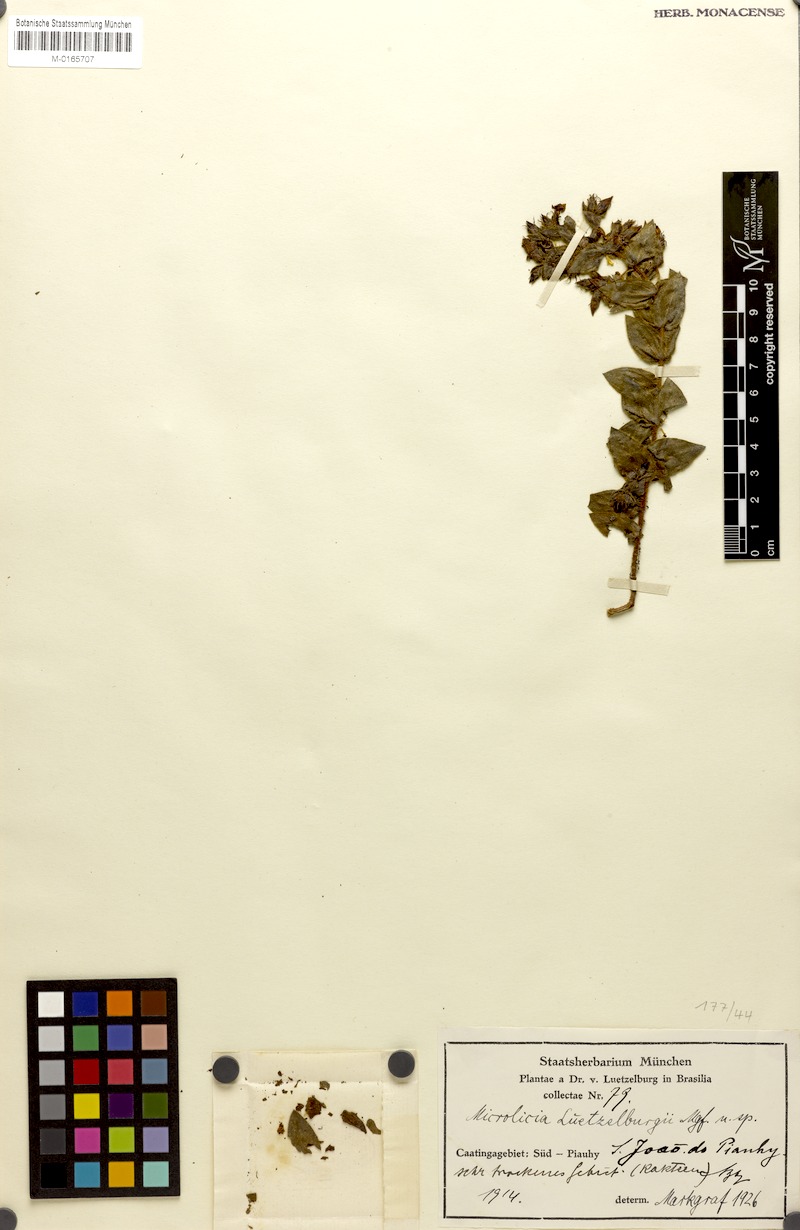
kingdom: Plantae
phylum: Tracheophyta
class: Magnoliopsida
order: Myrtales
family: Melastomataceae
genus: Microlicia
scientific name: Microlicia luetzelburgii
